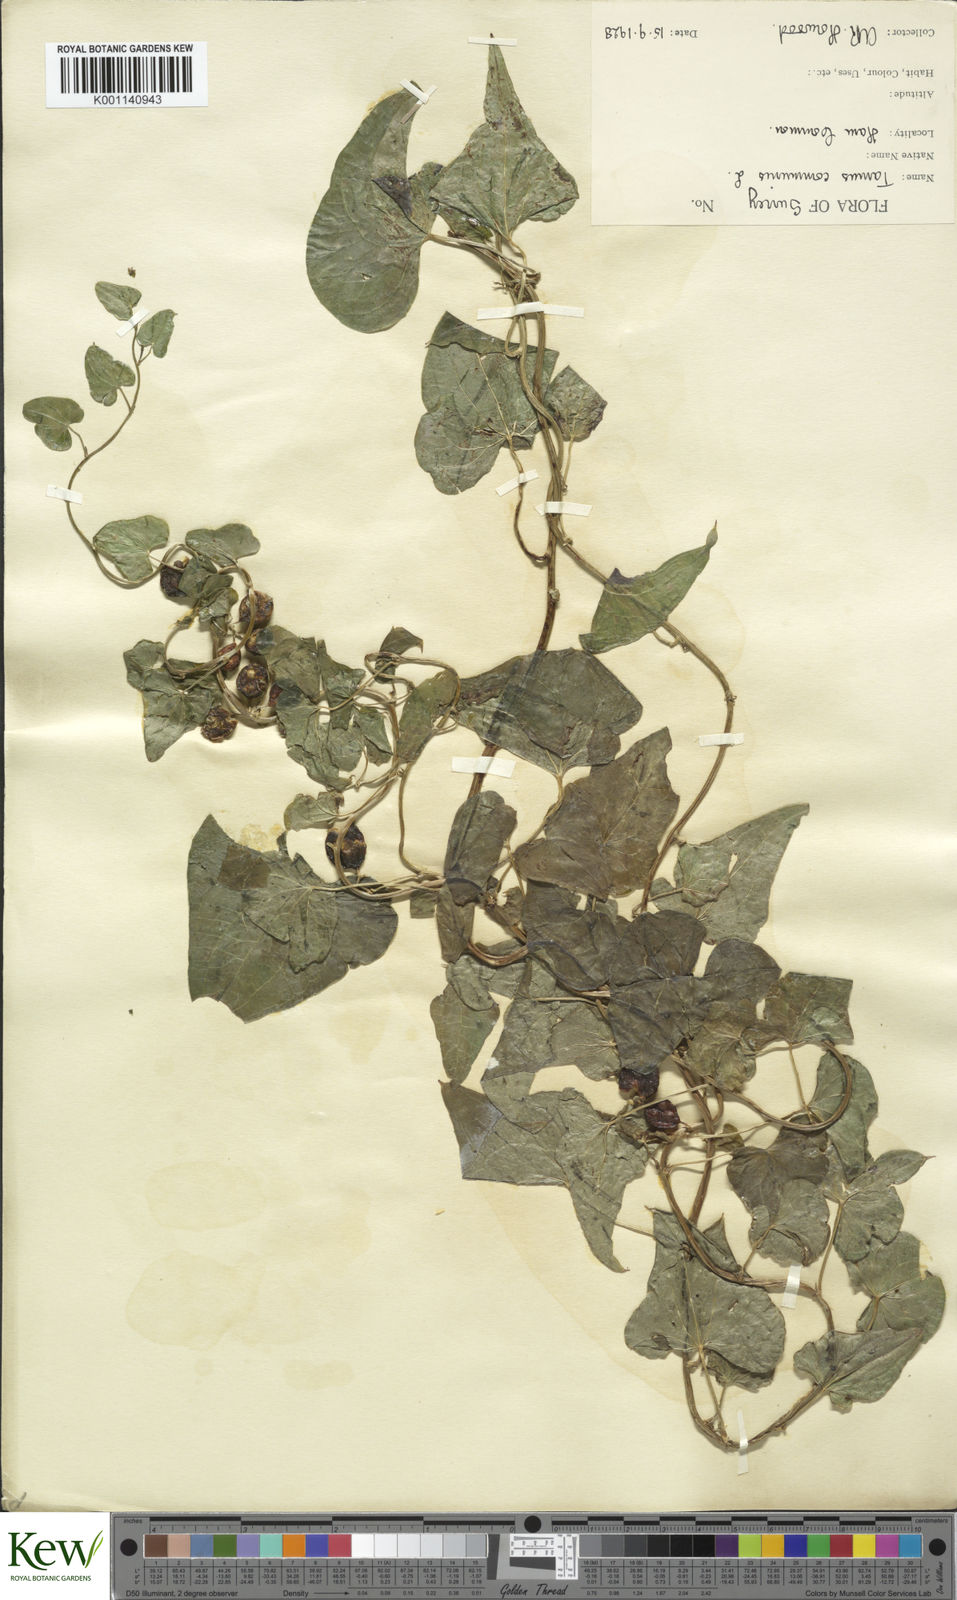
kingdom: Plantae
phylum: Tracheophyta
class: Liliopsida
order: Dioscoreales
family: Dioscoreaceae
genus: Dioscorea
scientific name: Dioscorea communis
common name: Black-bindweed
